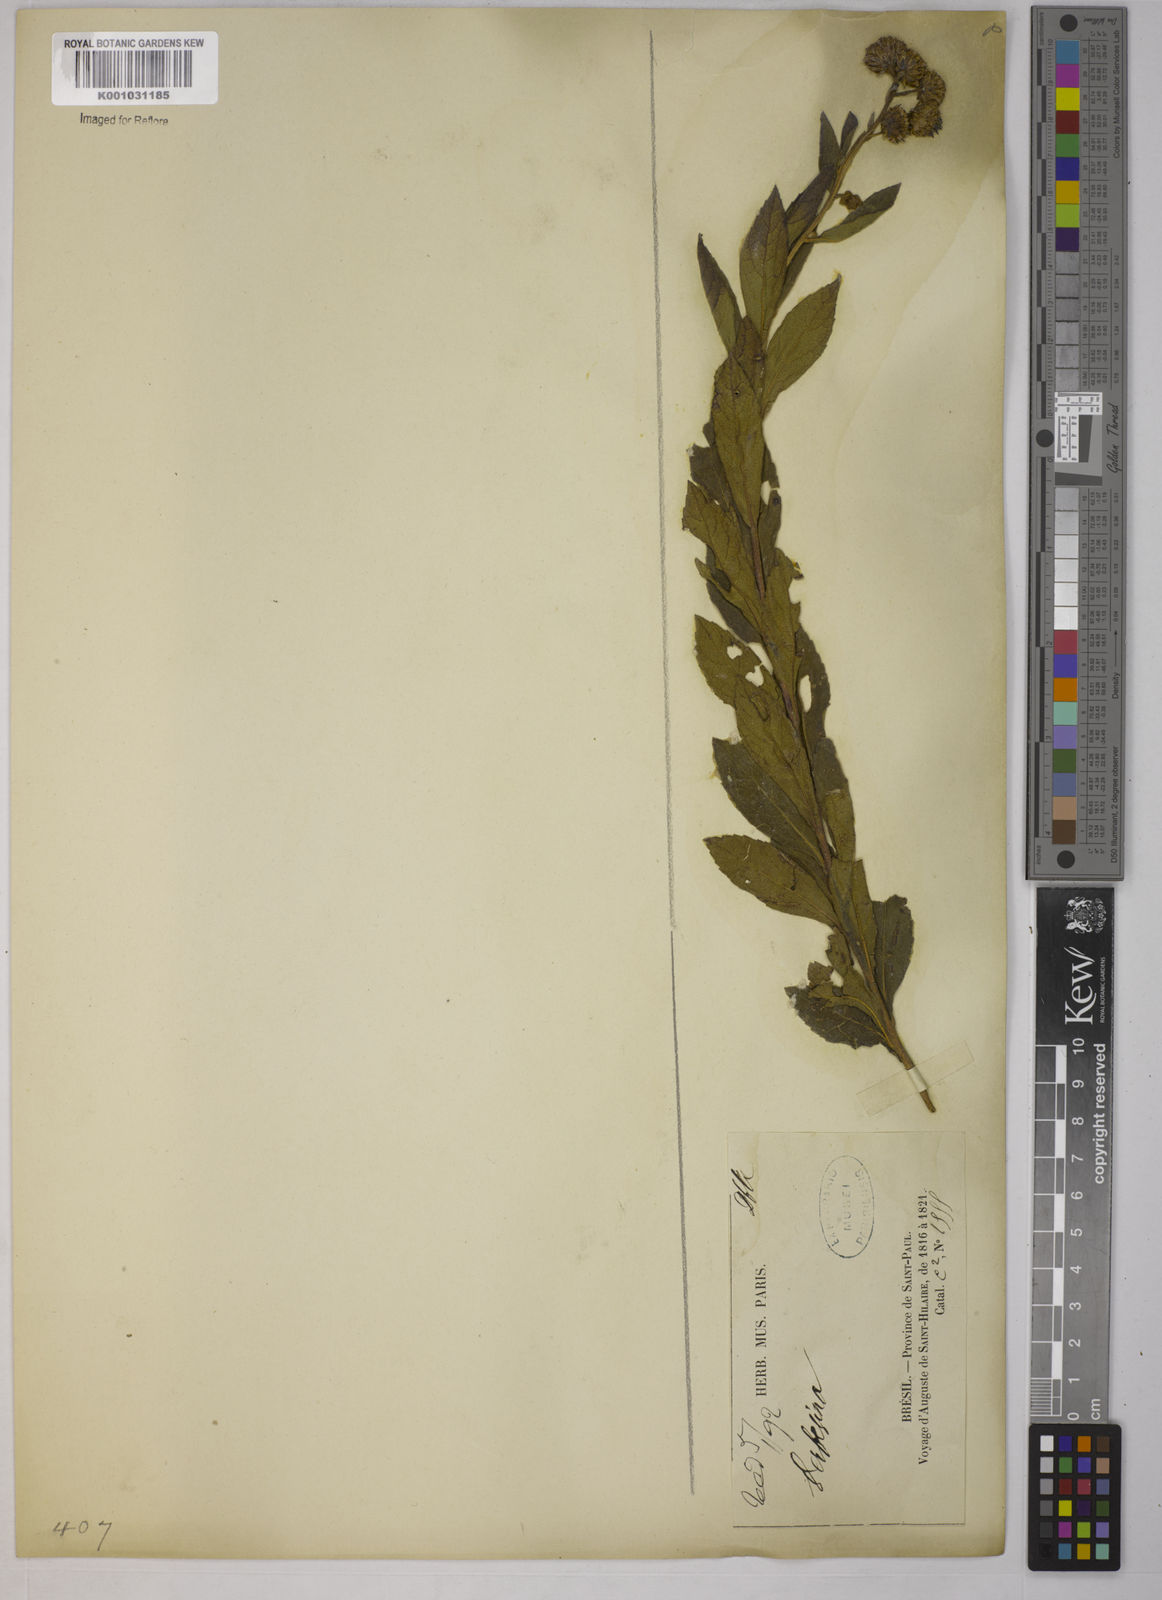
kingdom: Plantae
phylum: Tracheophyta
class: Magnoliopsida
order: Asterales
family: Asteraceae
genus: Verbesina
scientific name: Verbesina
